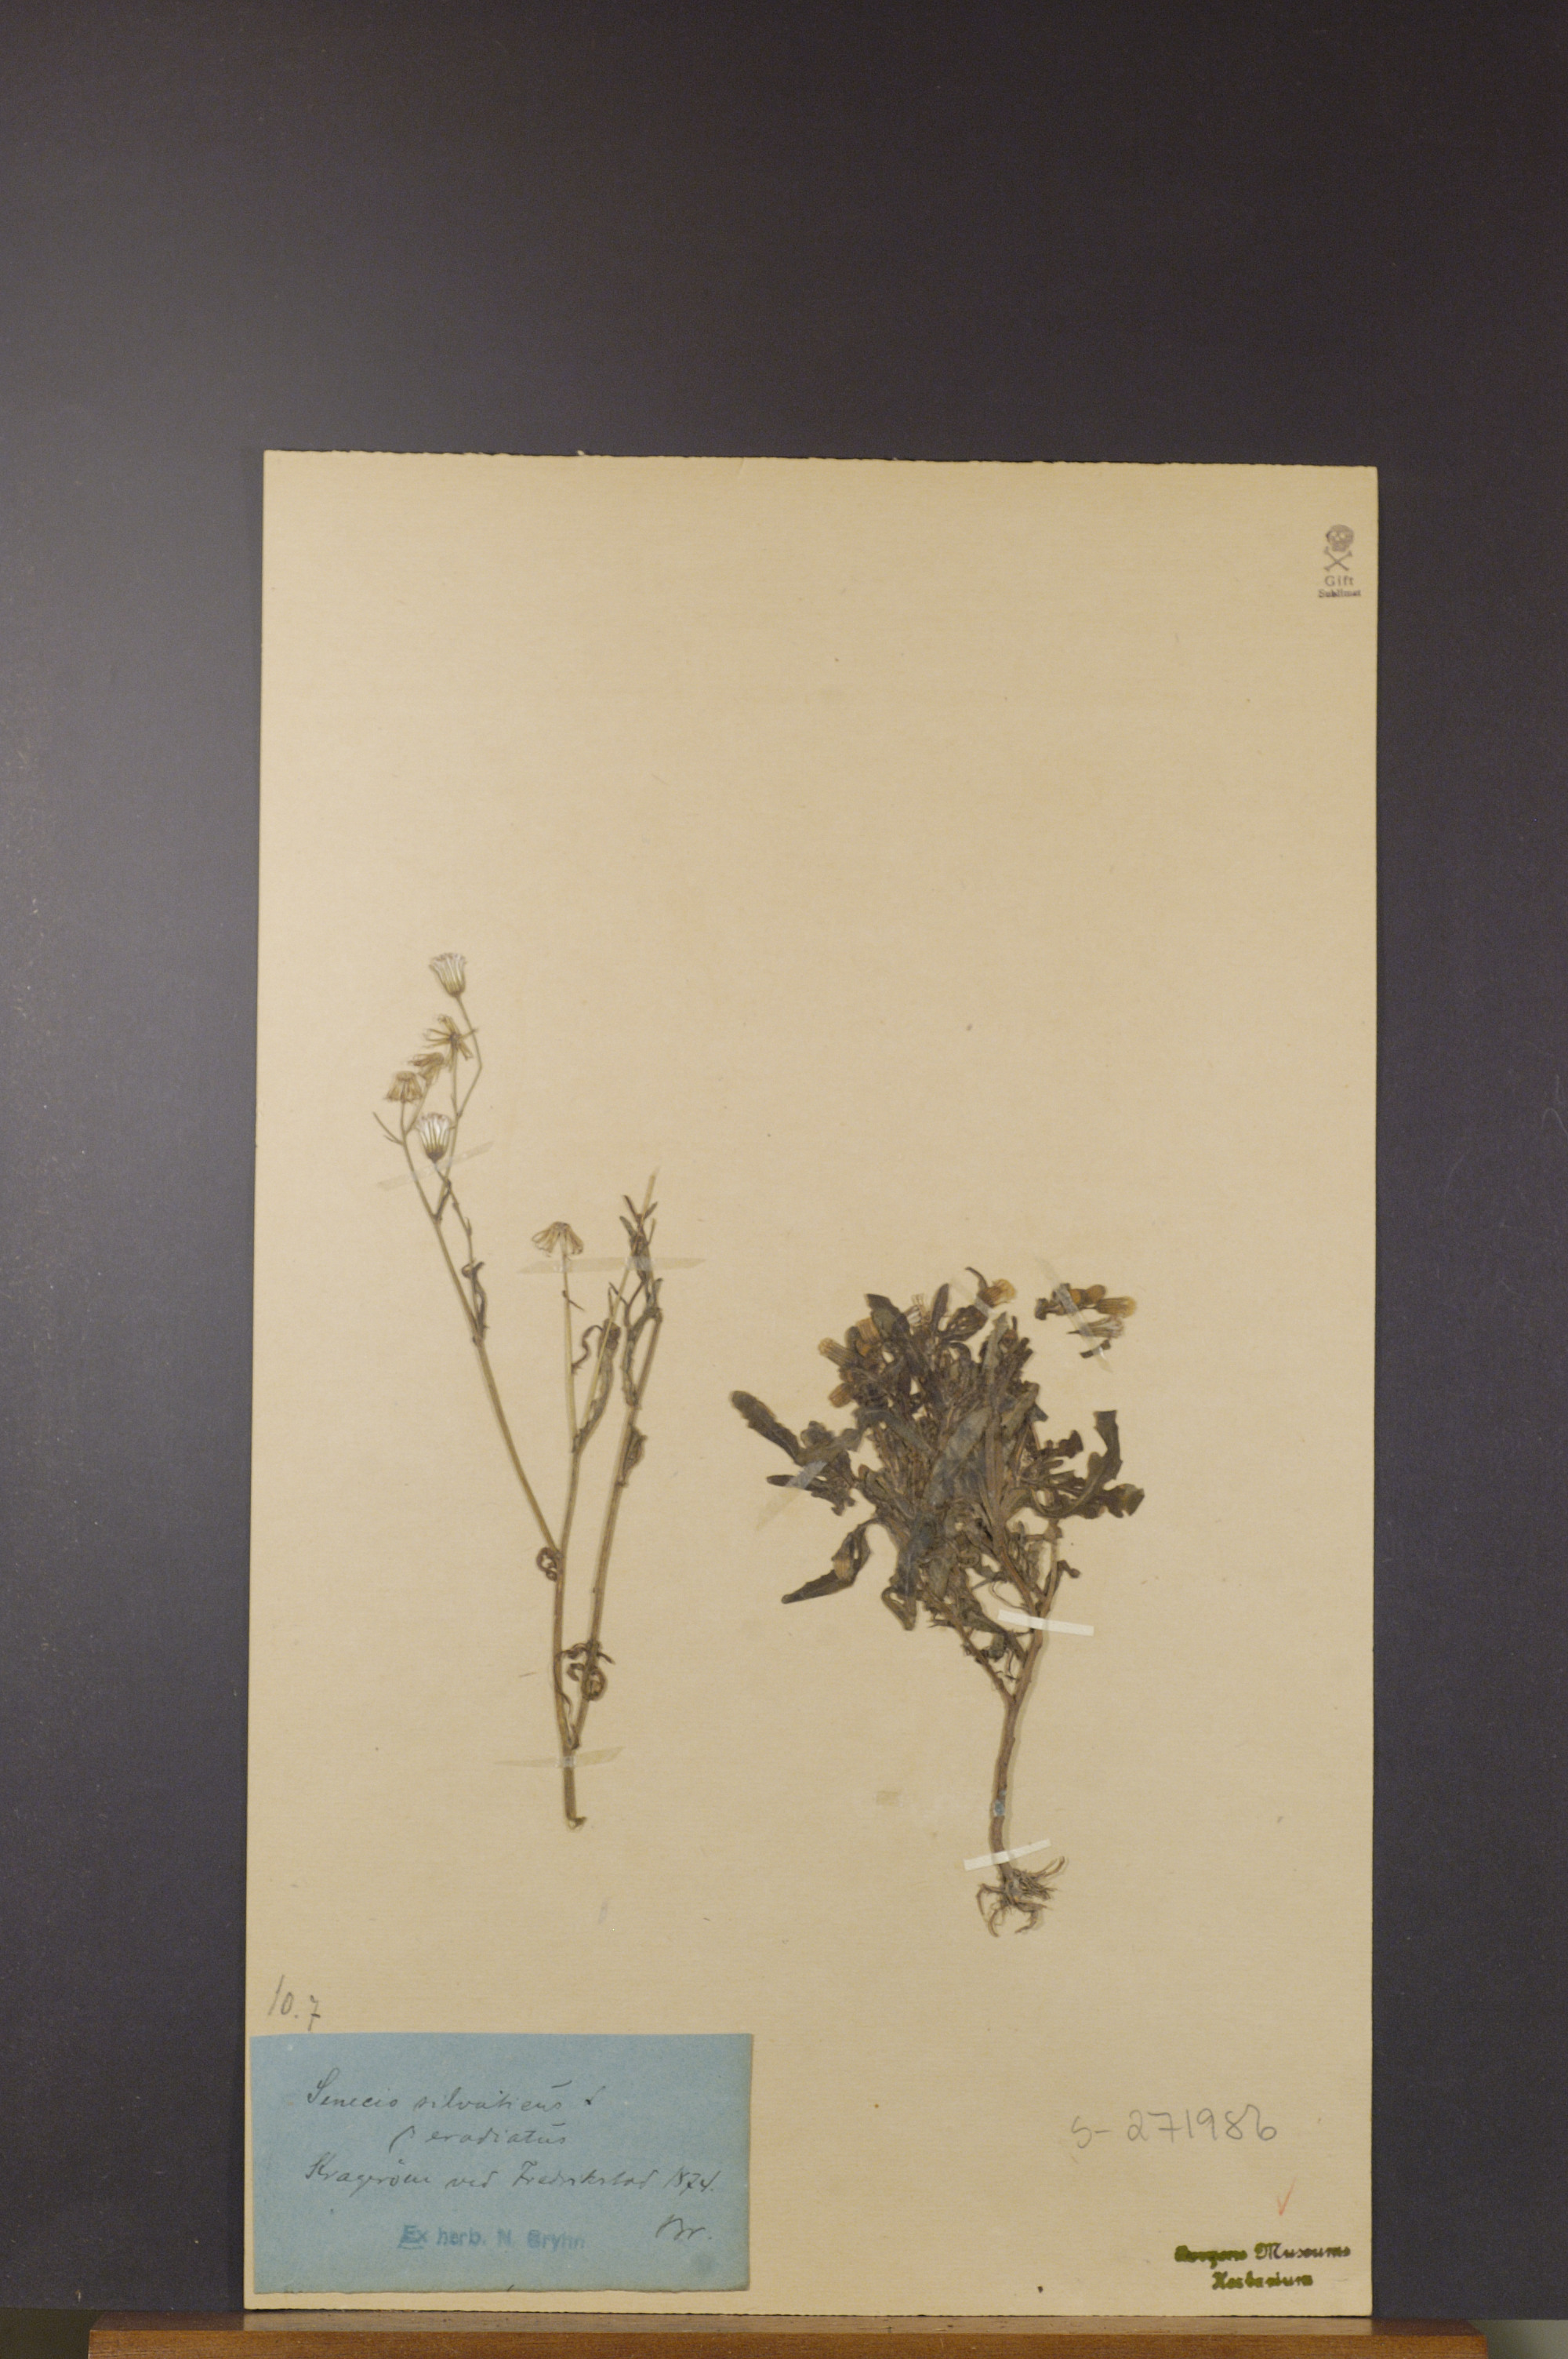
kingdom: Plantae
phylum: Tracheophyta
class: Magnoliopsida
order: Asterales
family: Asteraceae
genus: Senecio
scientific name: Senecio sylvaticus
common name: Woodland ragwort
